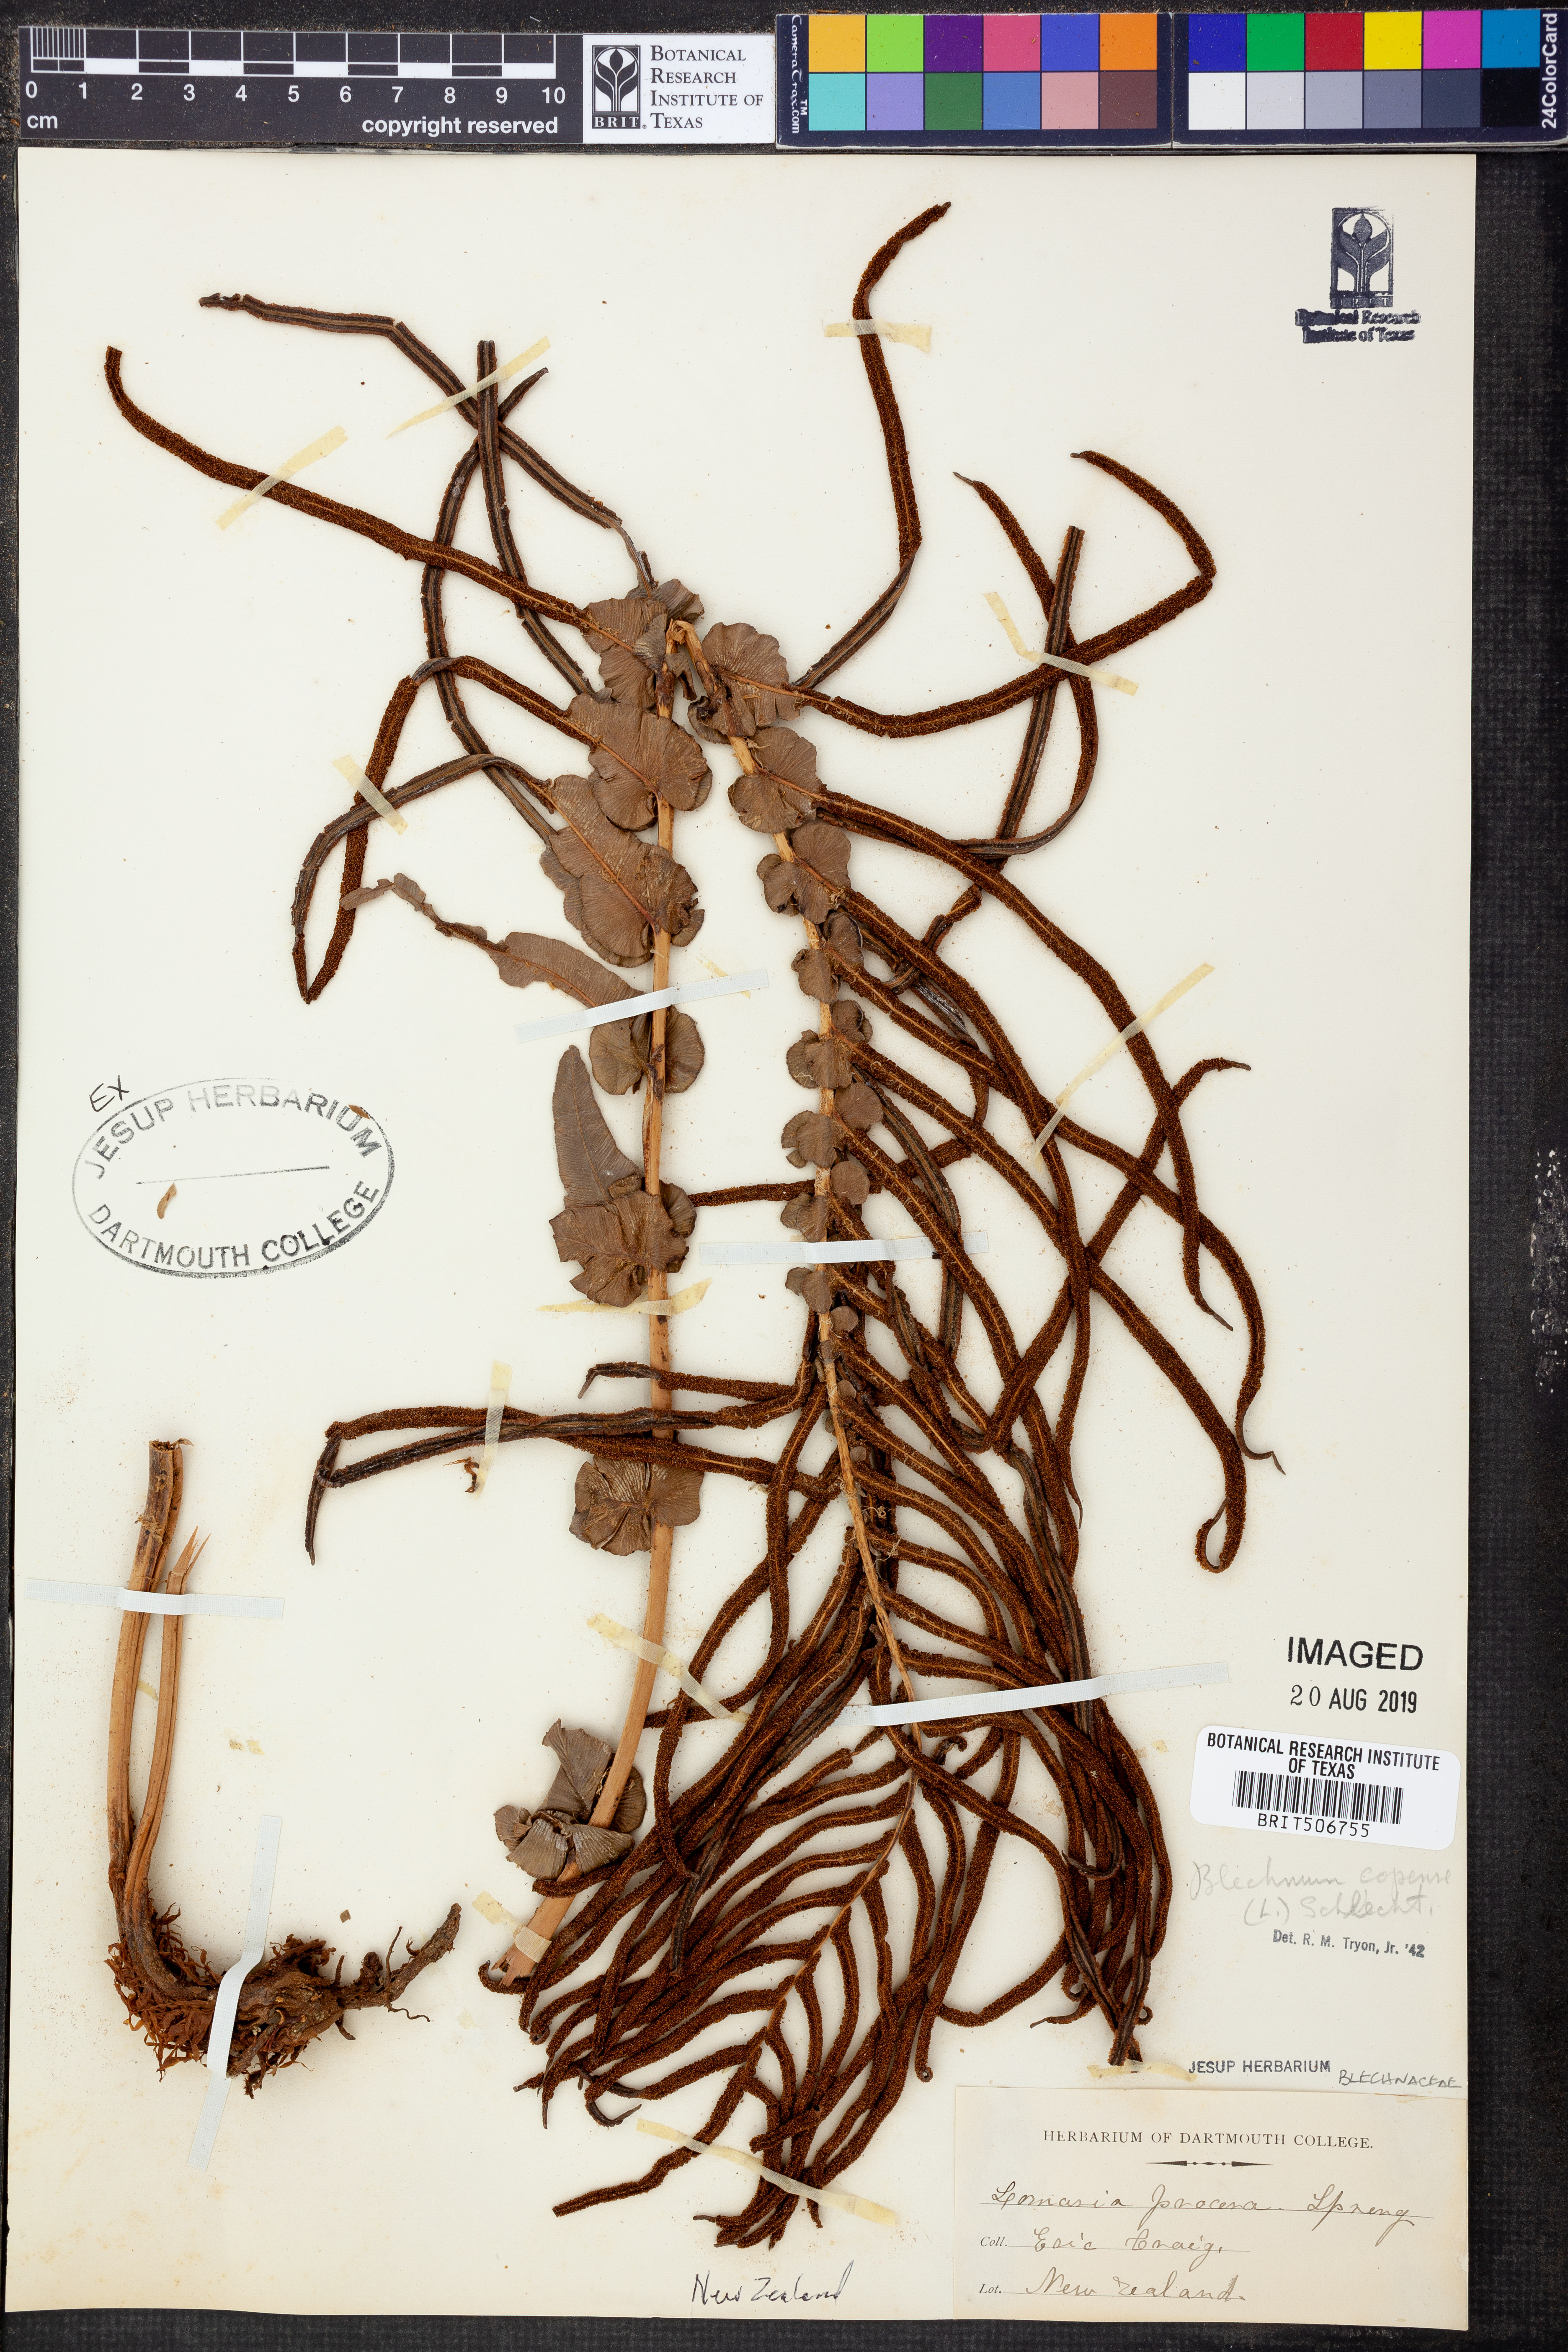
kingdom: Plantae
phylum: Tracheophyta
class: Polypodiopsida
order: Polypodiales
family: Blechnaceae
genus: Parablechnum
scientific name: Parablechnum capense
